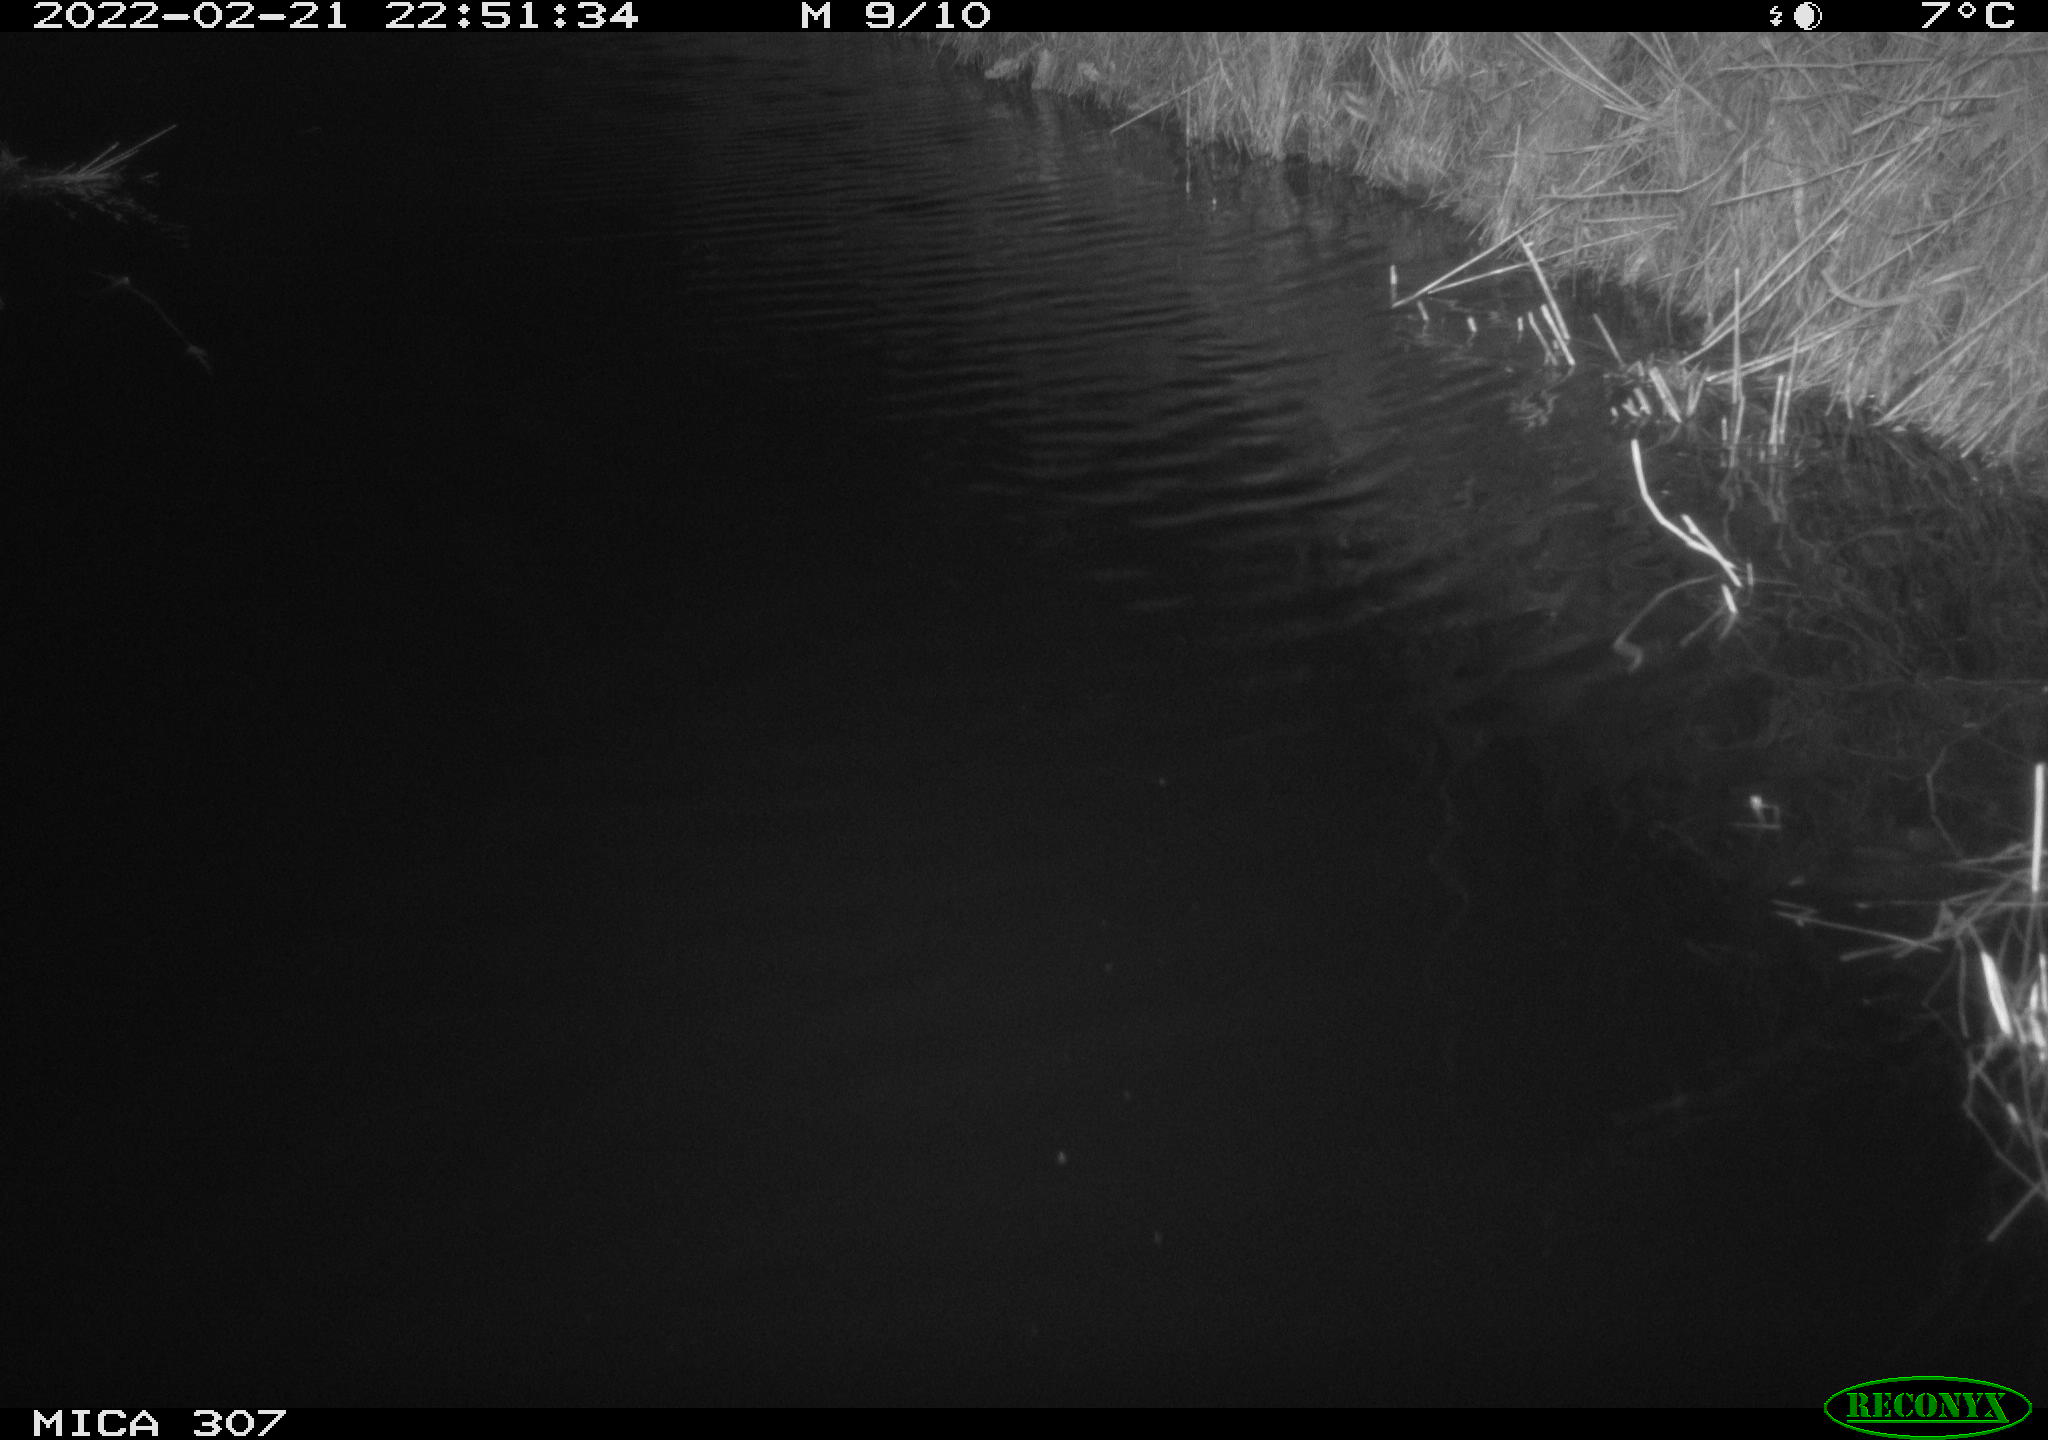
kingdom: Animalia
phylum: Chordata
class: Mammalia
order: Rodentia
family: Muridae
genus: Rattus
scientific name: Rattus norvegicus
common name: Brown rat
